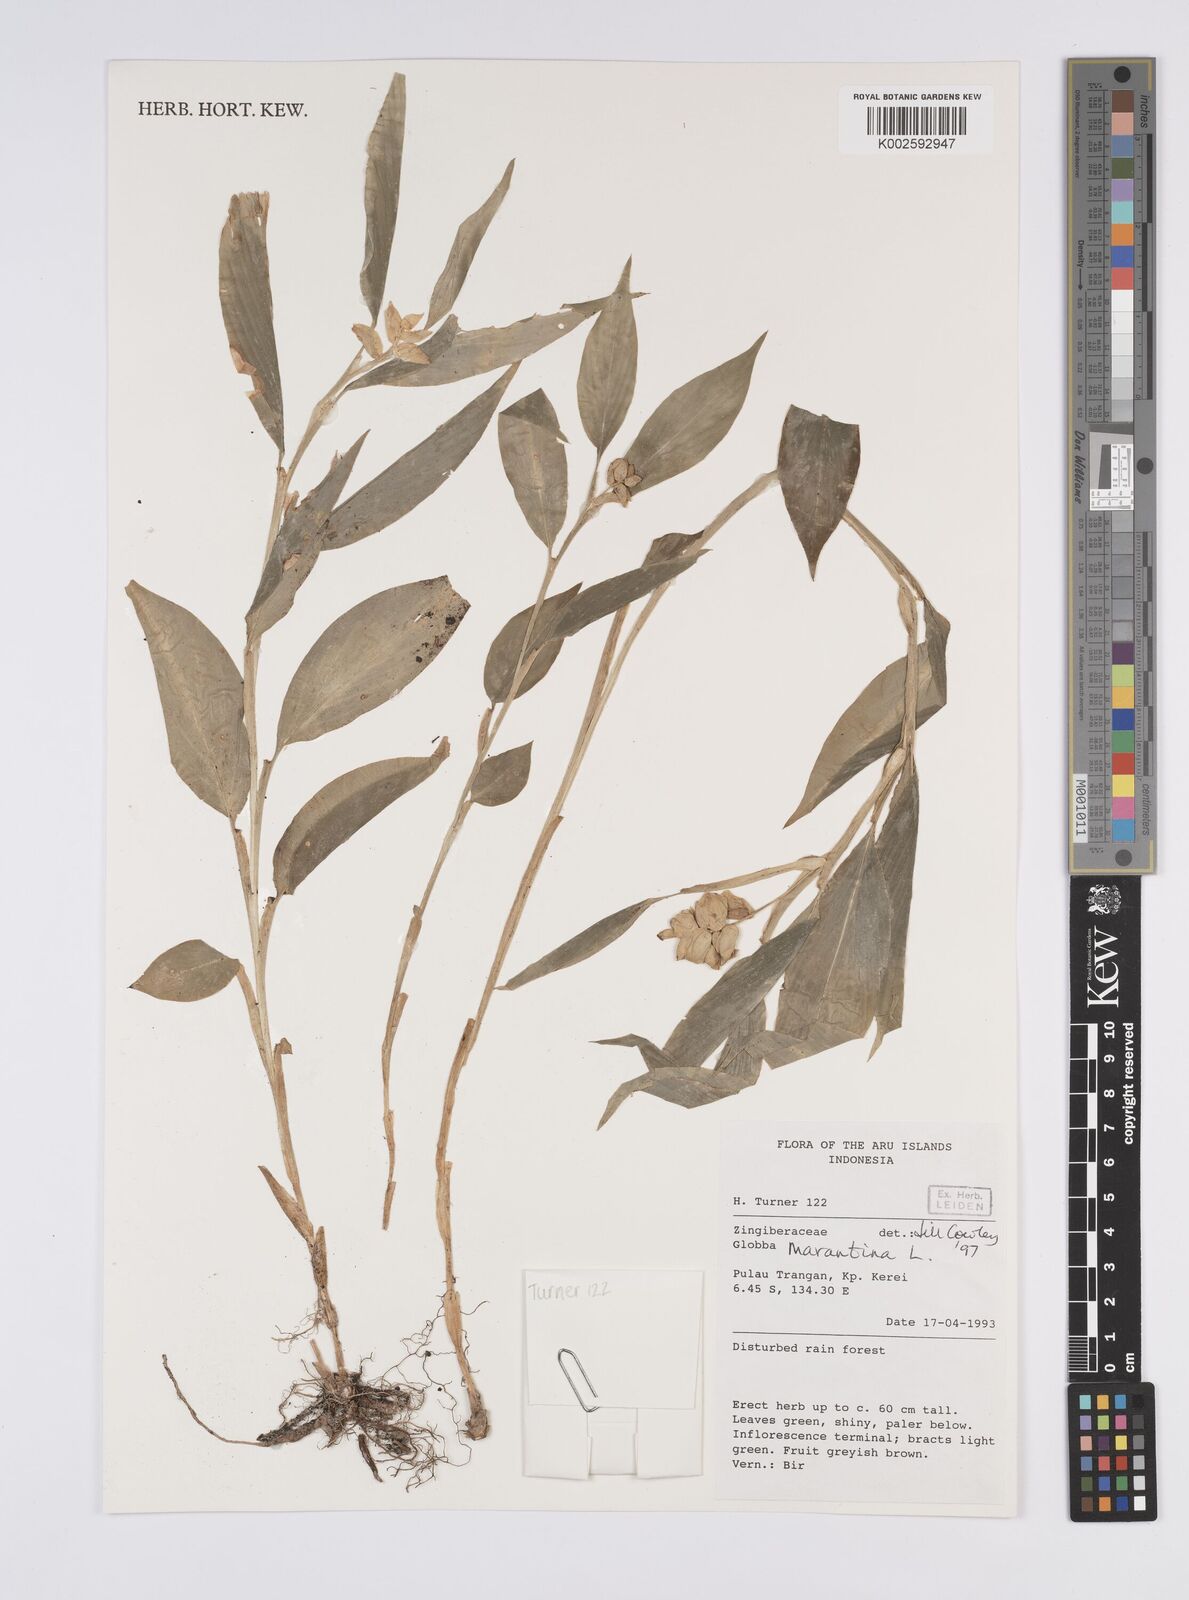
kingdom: Plantae
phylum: Tracheophyta
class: Liliopsida
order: Zingiberales
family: Zingiberaceae
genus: Globba
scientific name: Globba marantina
